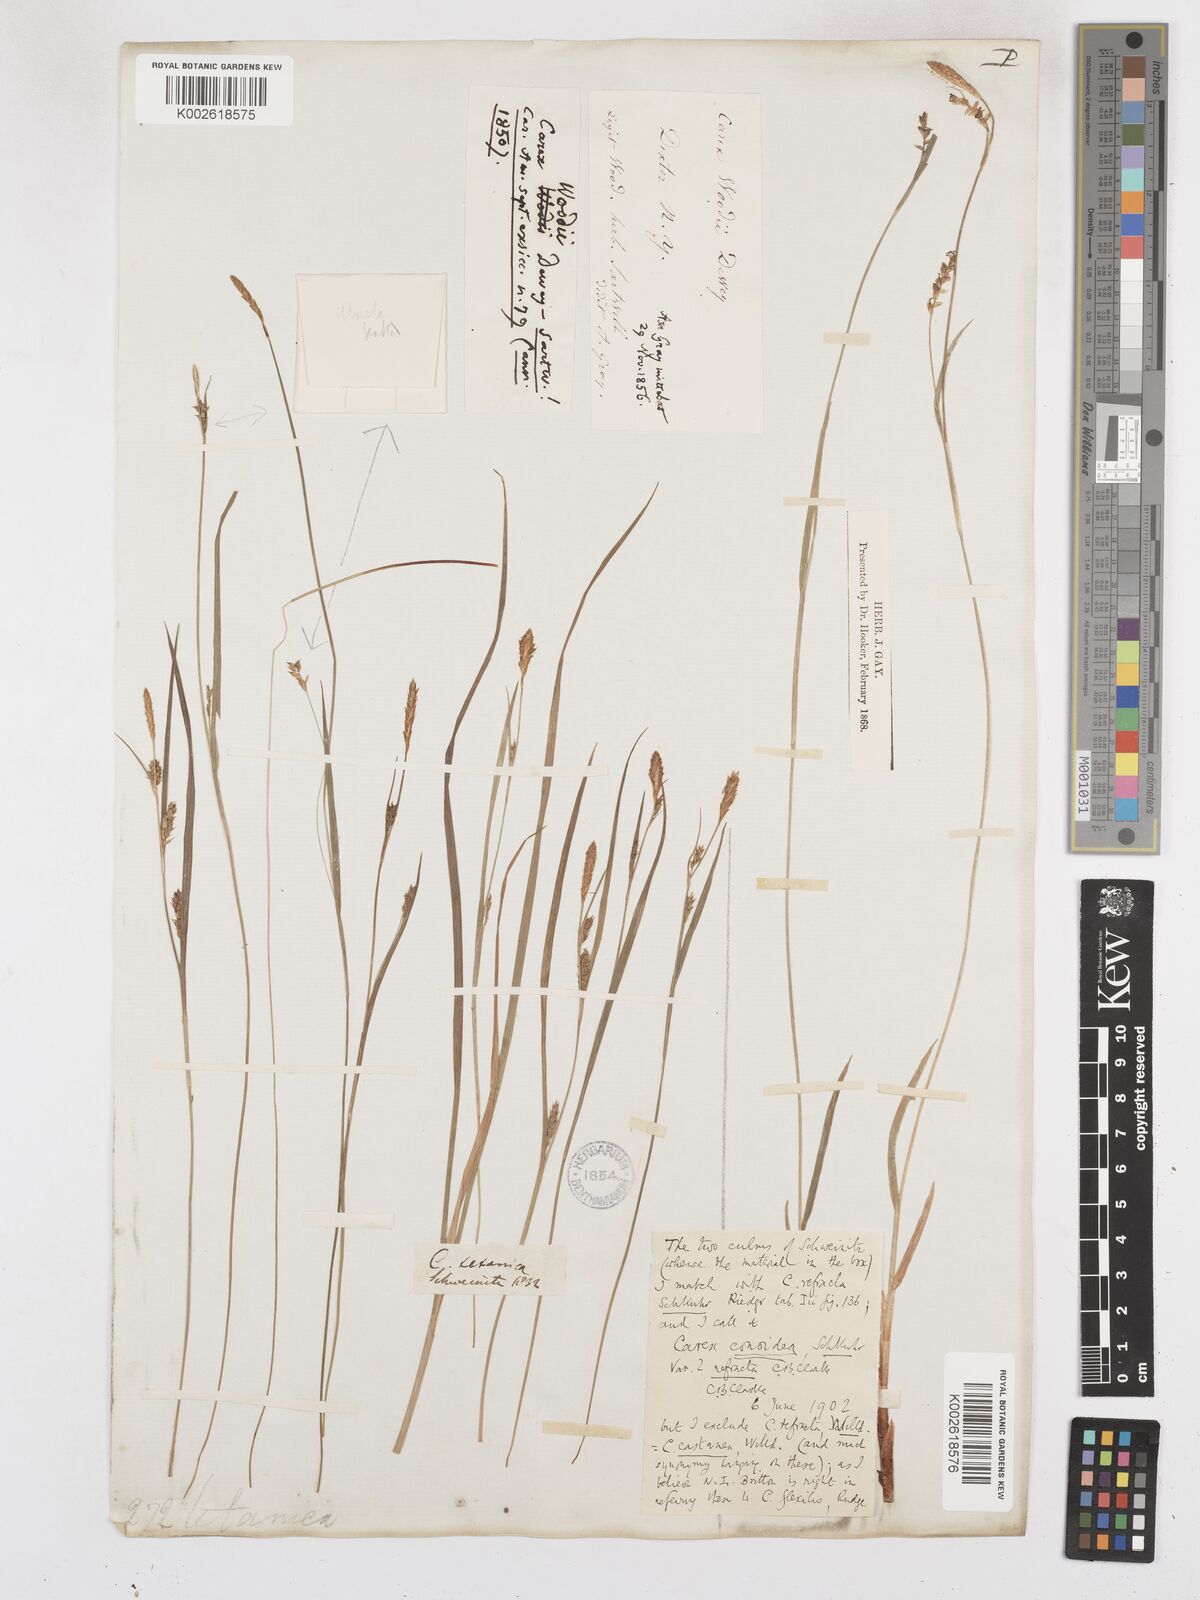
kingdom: Plantae
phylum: Tracheophyta
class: Liliopsida
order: Poales
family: Cyperaceae
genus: Carex
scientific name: Carex woodii
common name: Wood's sedge
